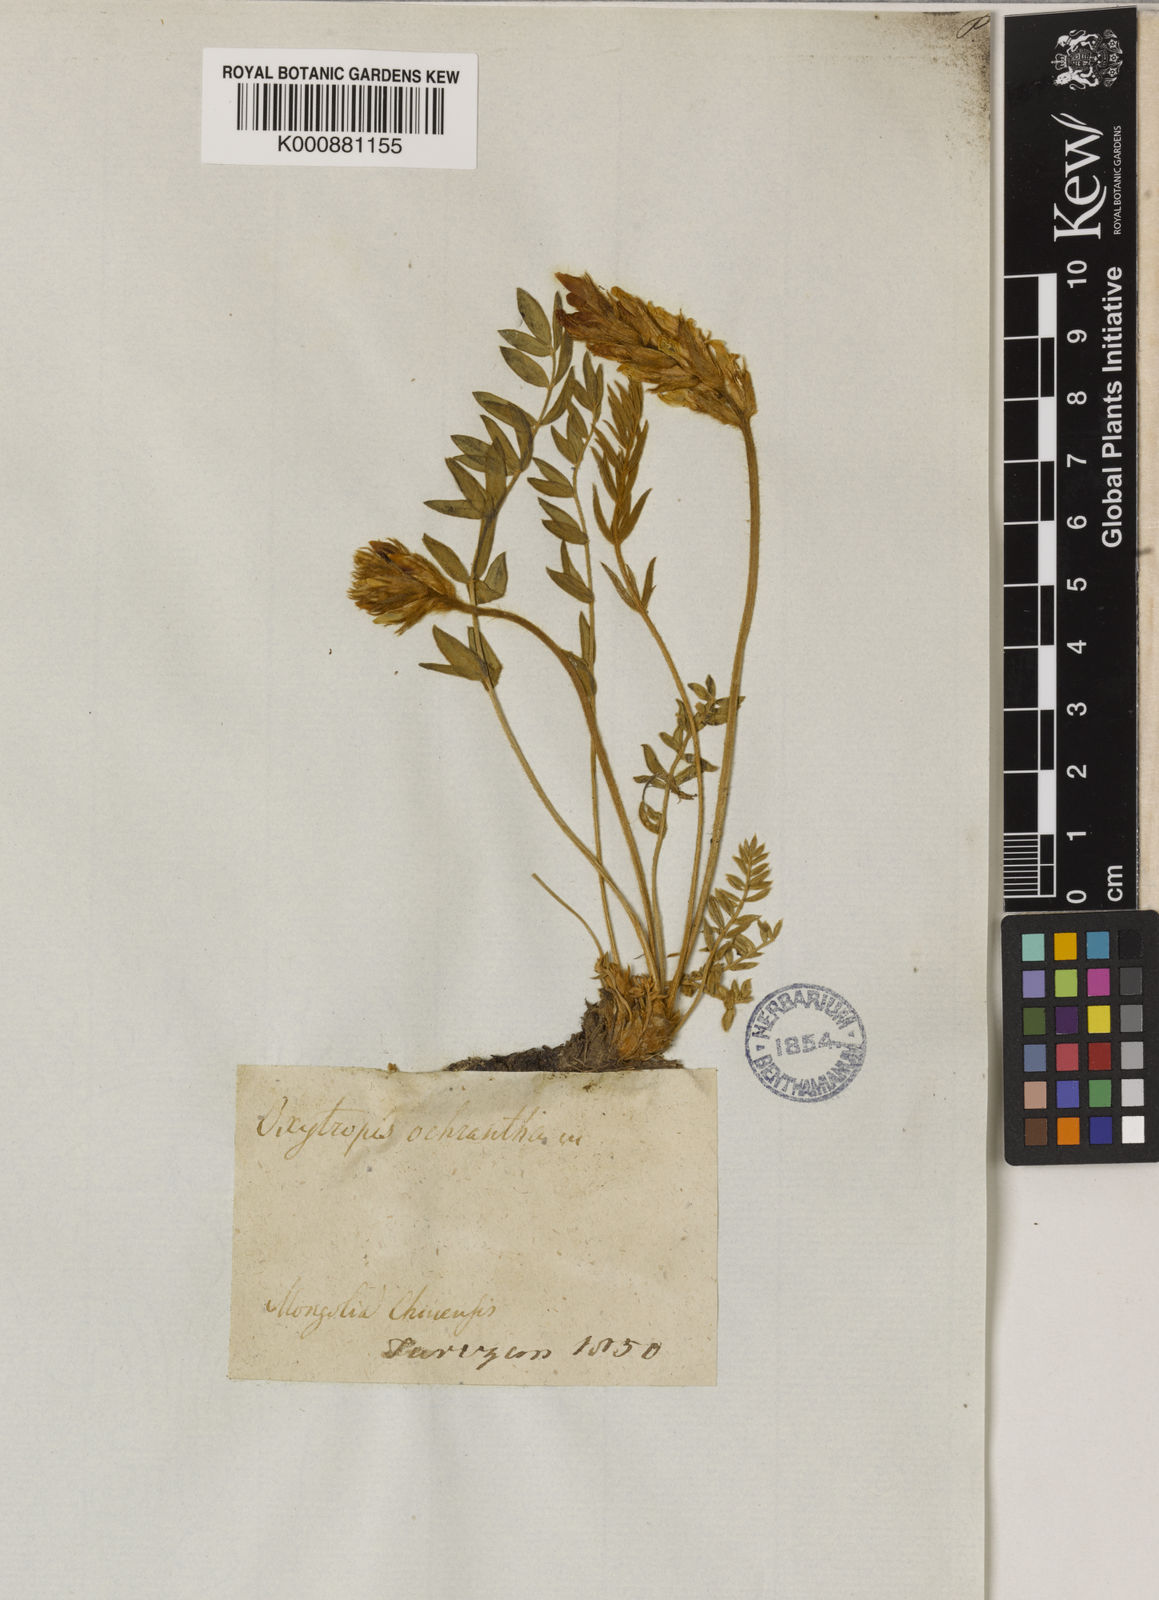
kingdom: Plantae
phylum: Tracheophyta
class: Magnoliopsida
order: Fabales
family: Fabaceae
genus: Oxytropis
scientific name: Oxytropis ochrantha
